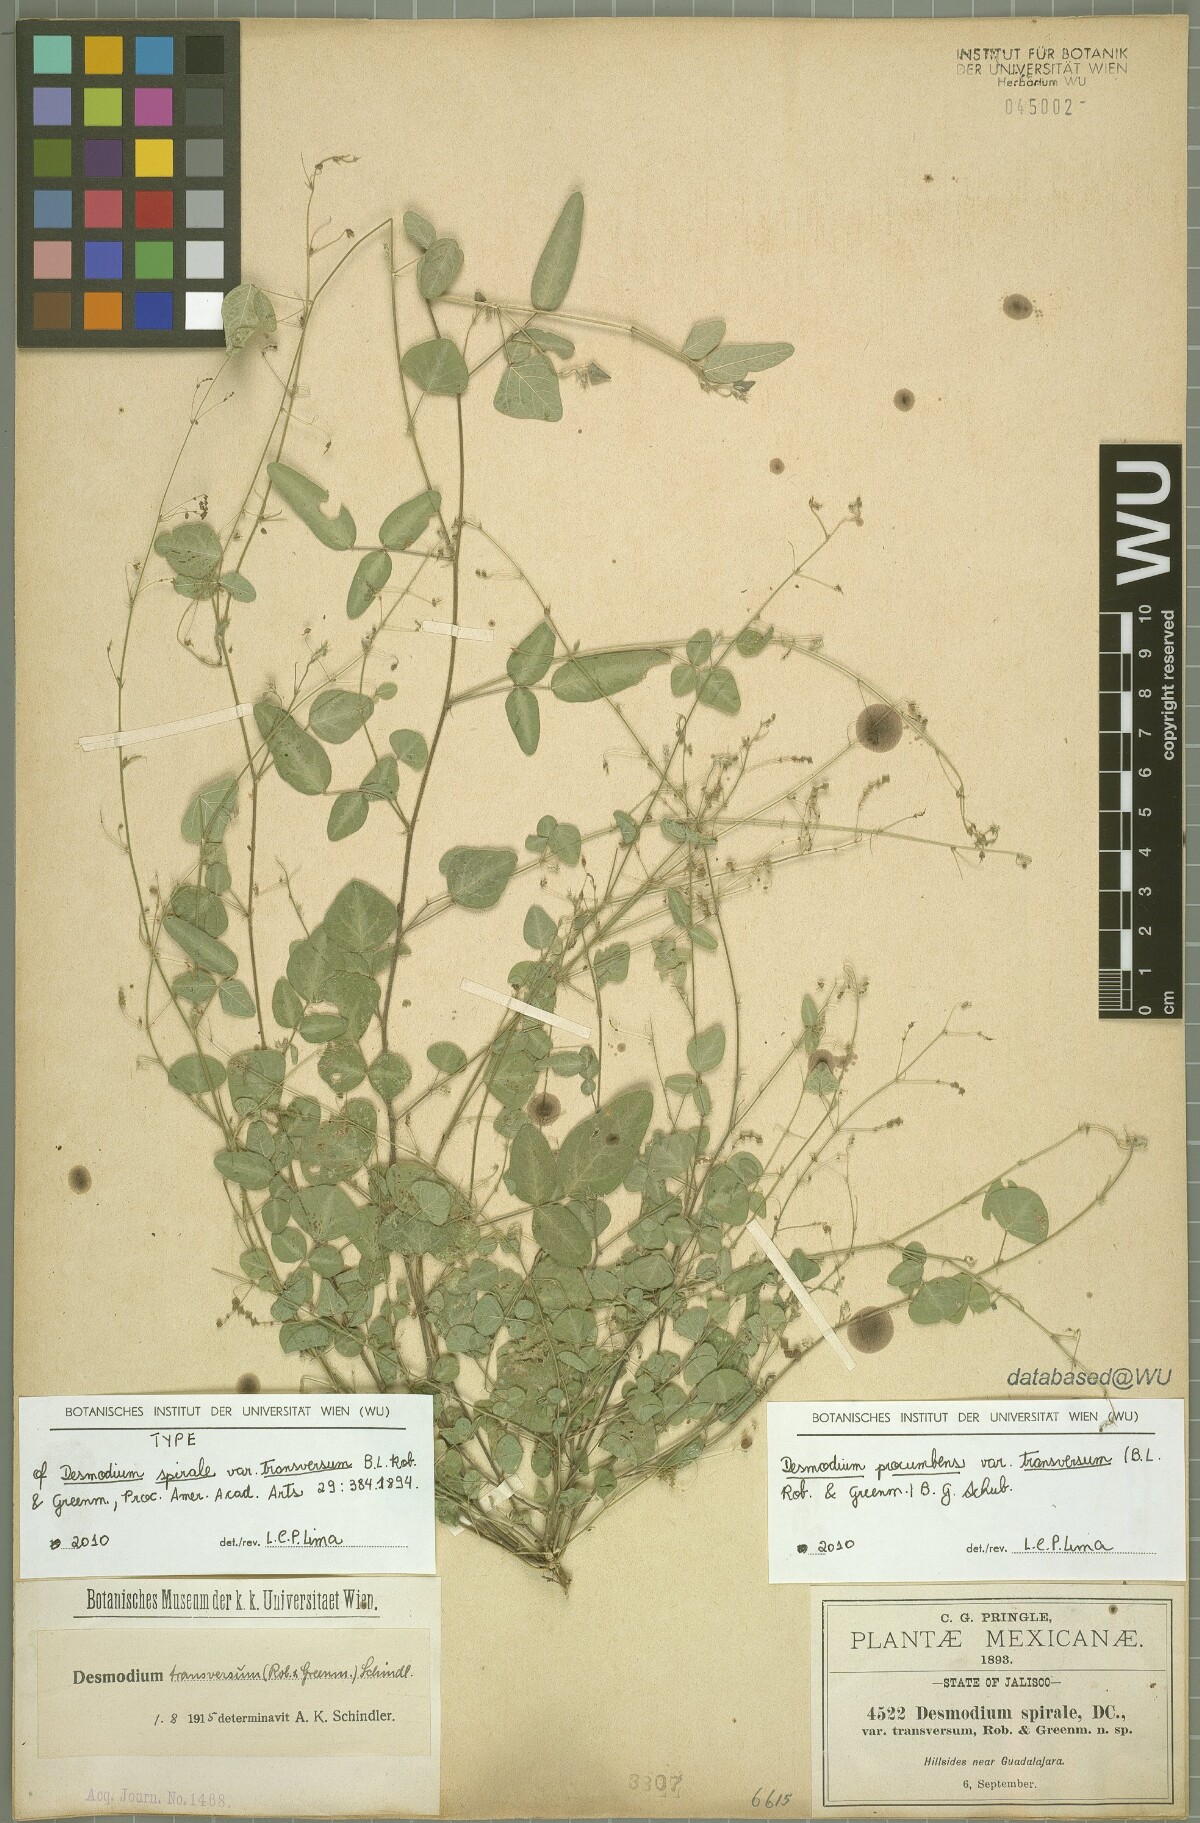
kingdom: Plantae
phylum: Tracheophyta
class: Magnoliopsida
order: Fabales
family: Fabaceae
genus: Desmodium
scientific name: Desmodium procumbens
